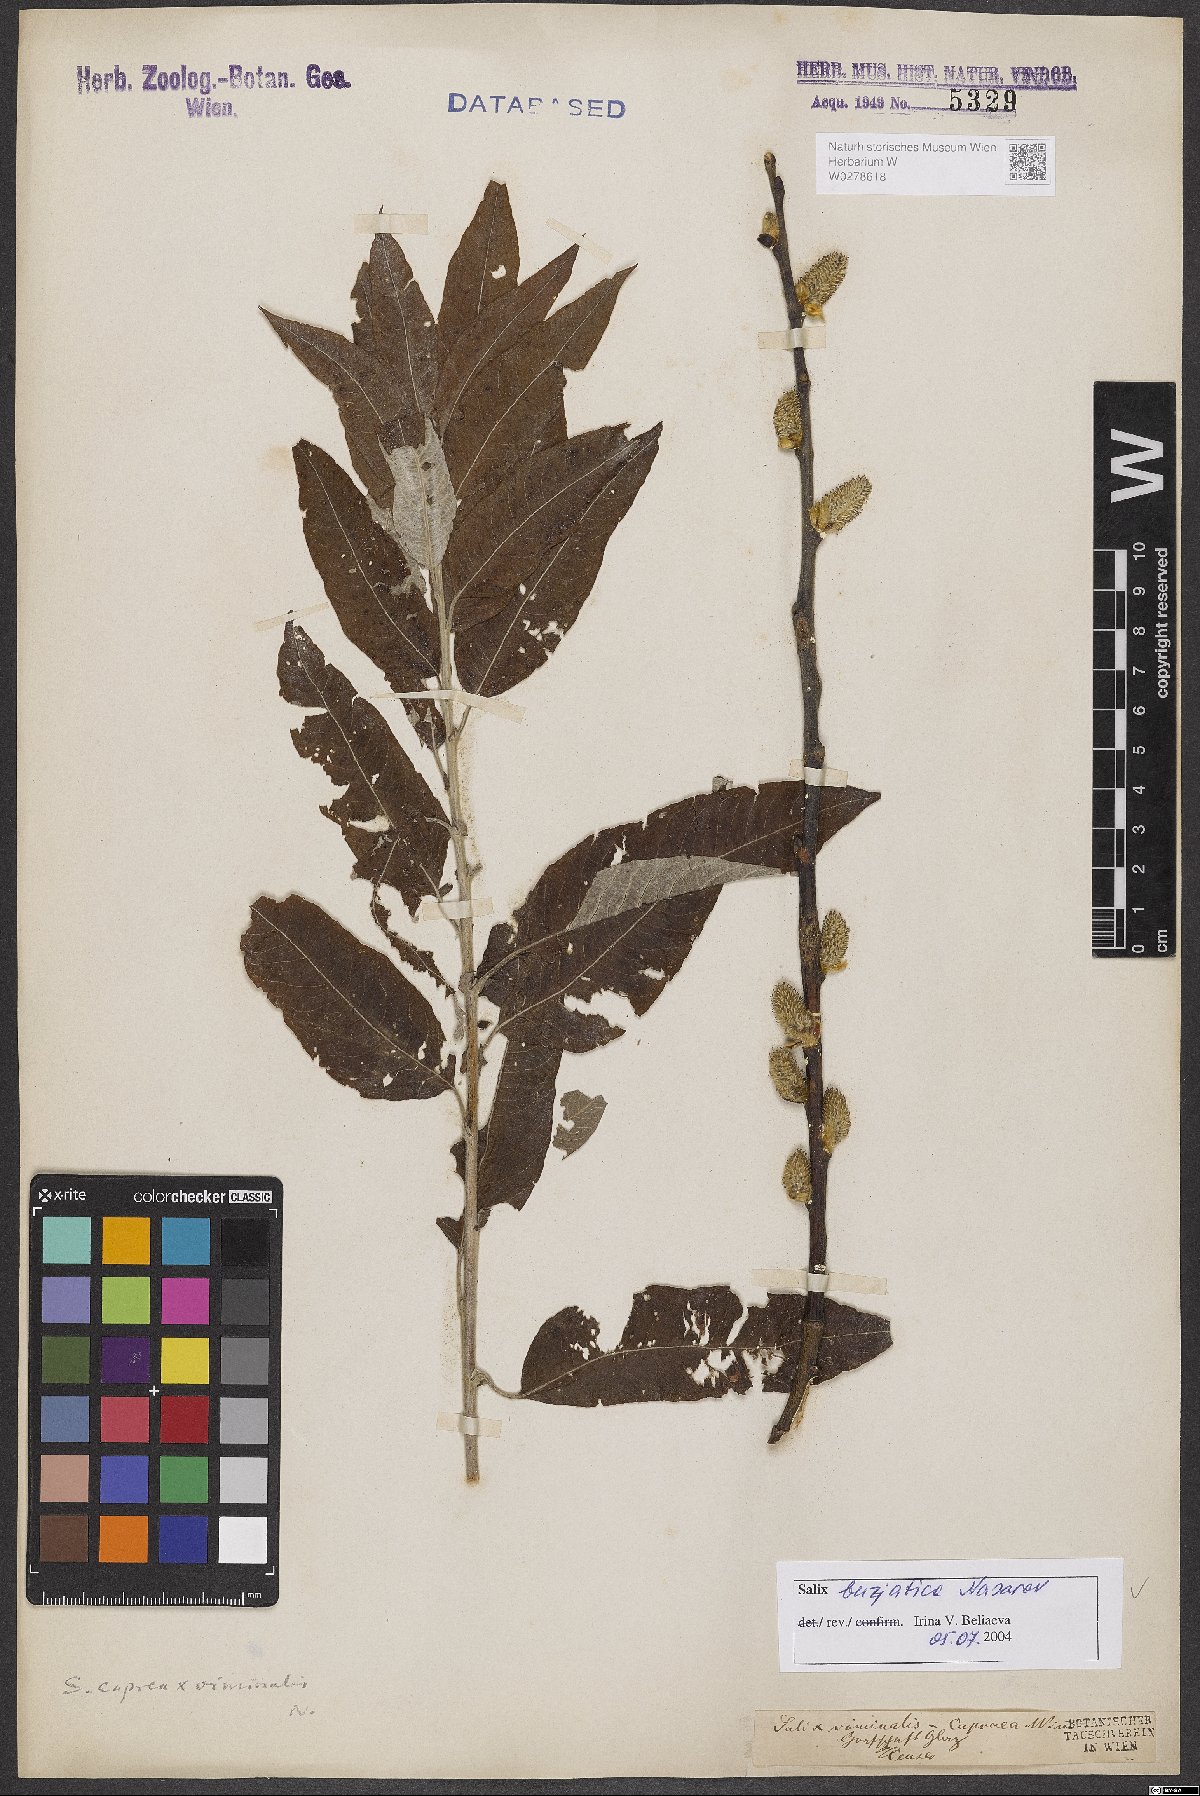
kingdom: Plantae
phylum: Tracheophyta
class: Magnoliopsida
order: Malpighiales
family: Salicaceae
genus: Salix
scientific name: Salix gmelinii
